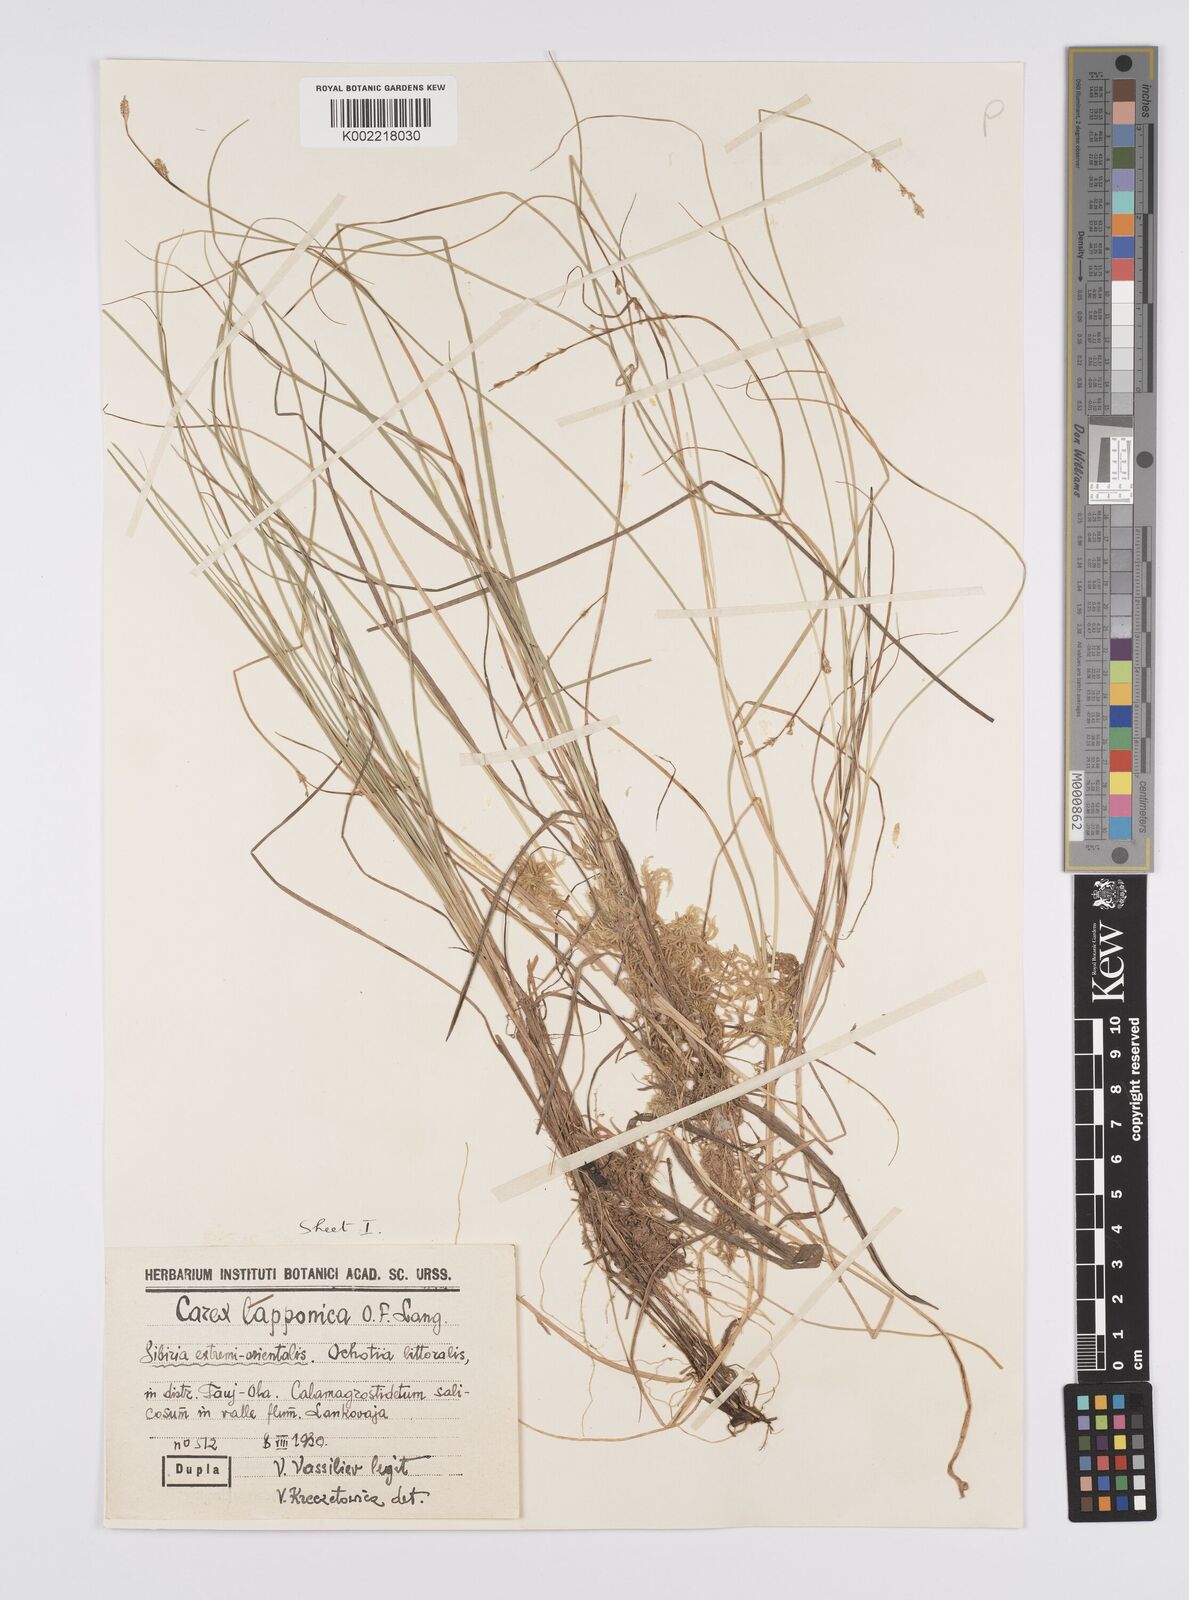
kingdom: Plantae
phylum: Tracheophyta
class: Liliopsida
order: Poales
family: Cyperaceae
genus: Carex
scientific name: Carex canescens
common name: White sedge
